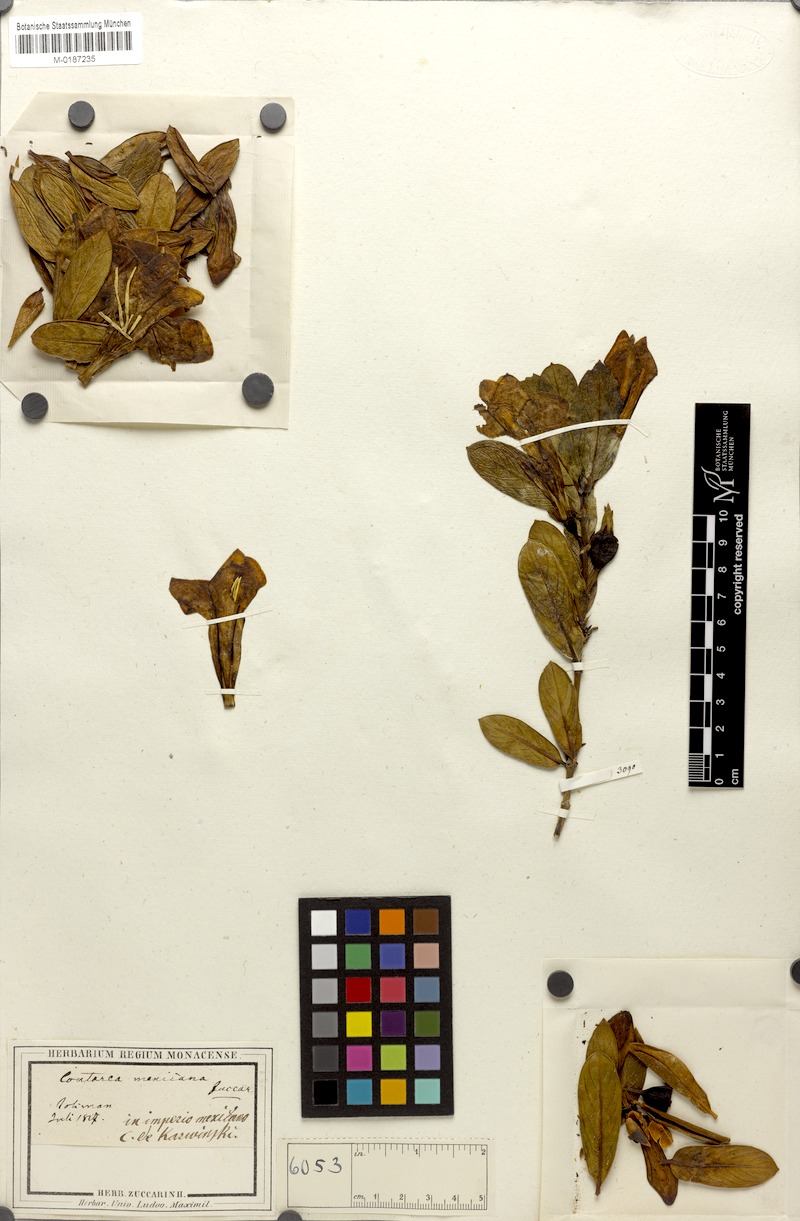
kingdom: Plantae
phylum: Tracheophyta
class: Magnoliopsida
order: Gentianales
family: Rubiaceae
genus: Nernstia
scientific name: Nernstia mexicana
